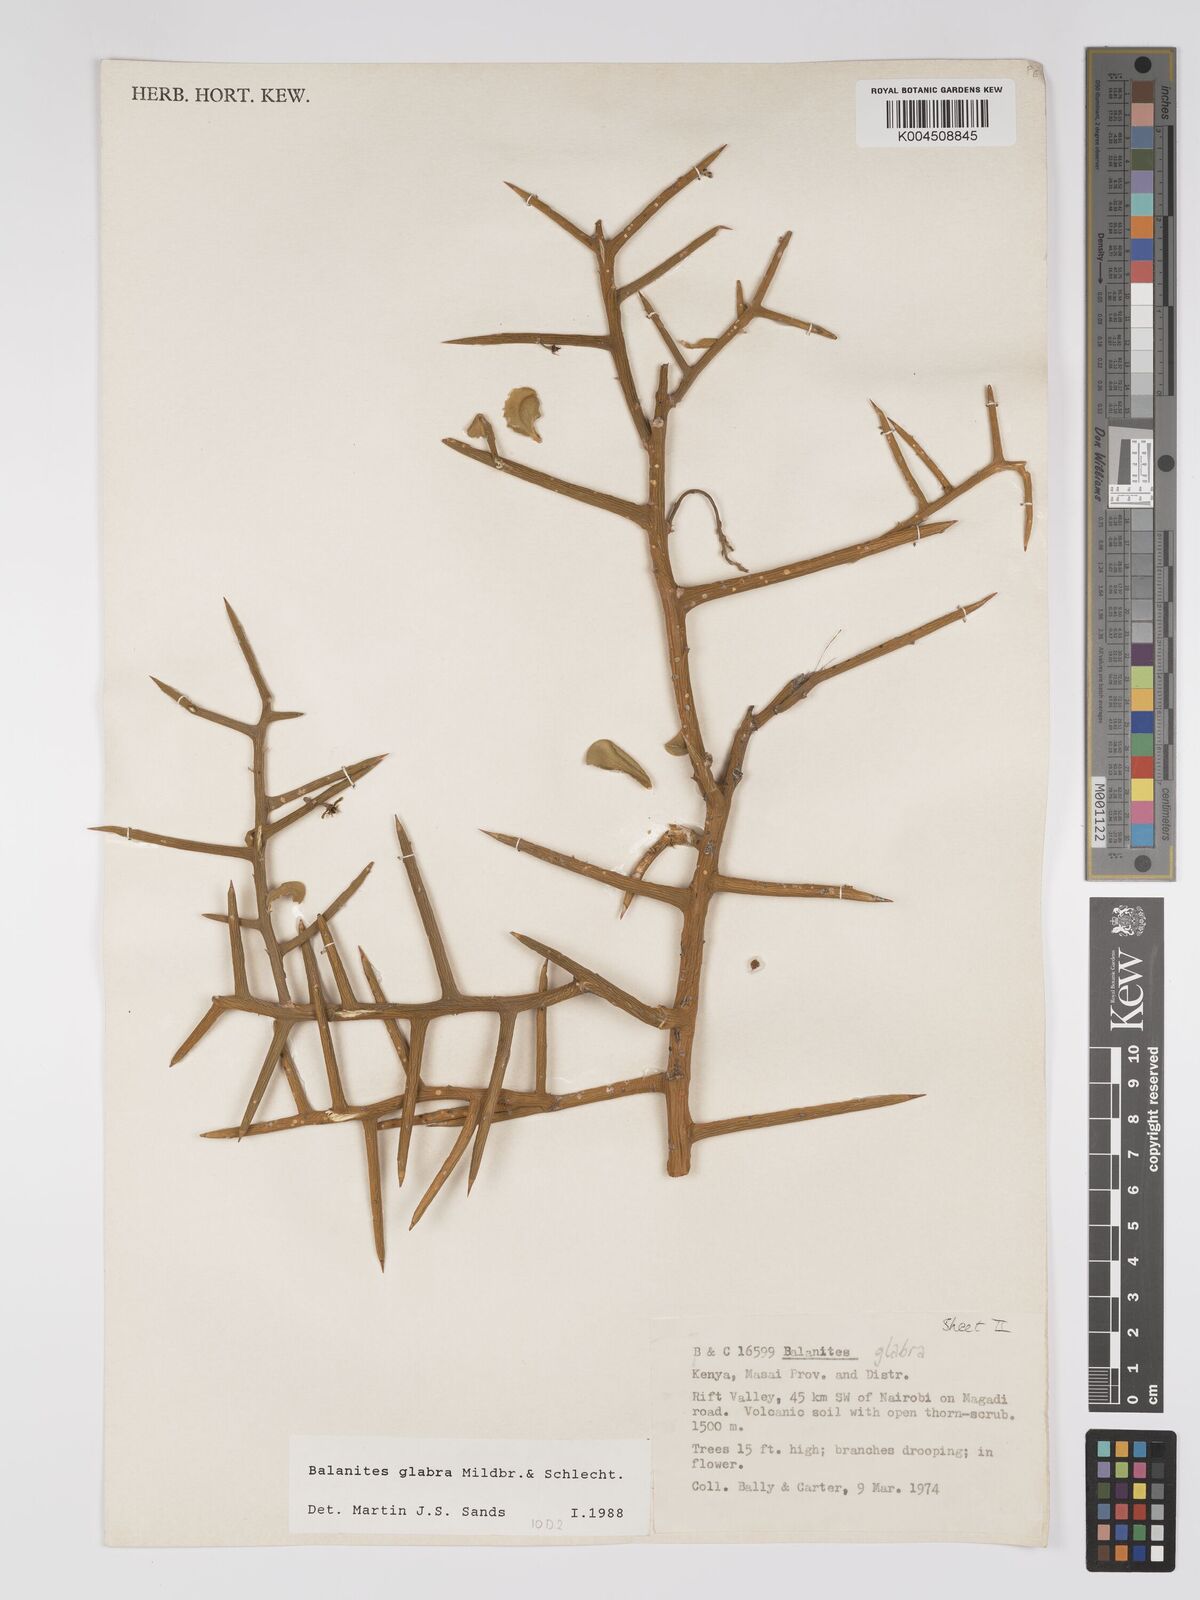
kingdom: Plantae
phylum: Tracheophyta
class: Magnoliopsida
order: Zygophyllales
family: Zygophyllaceae
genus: Balanites
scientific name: Balanites glabra
